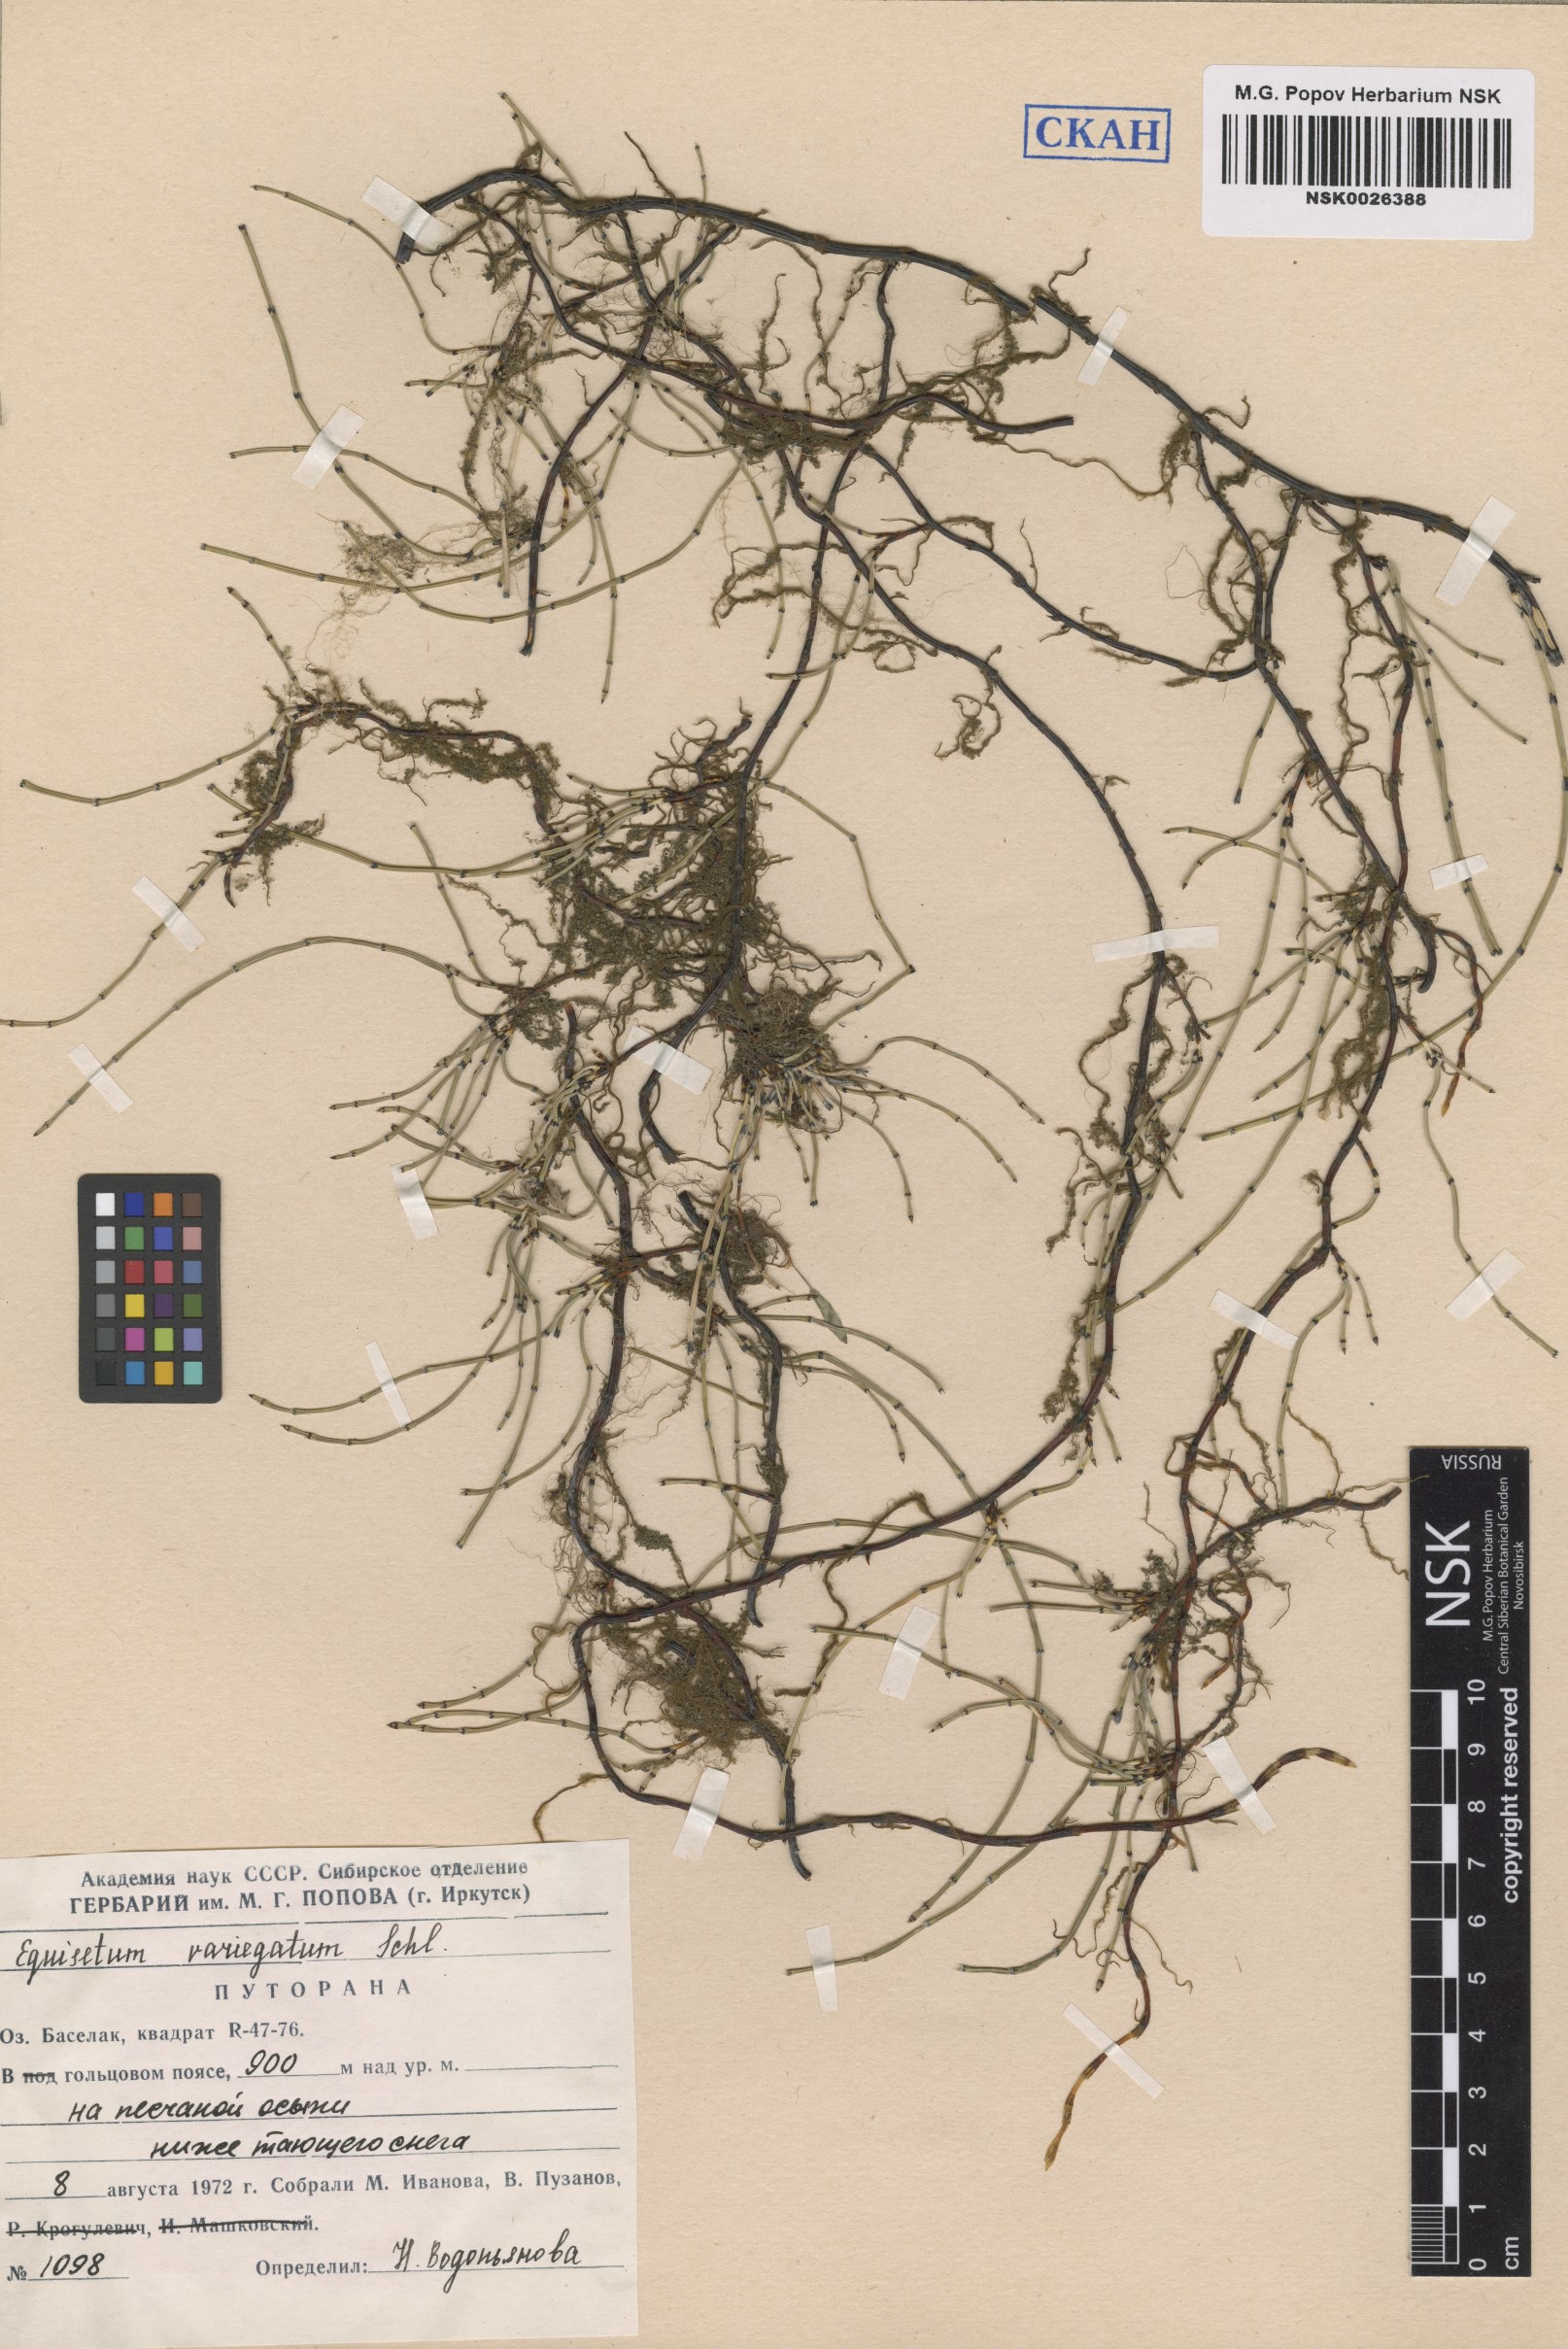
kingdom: Plantae
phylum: Tracheophyta
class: Polypodiopsida
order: Equisetales
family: Equisetaceae
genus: Equisetum
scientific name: Equisetum variegatum
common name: Variegated horsetail
